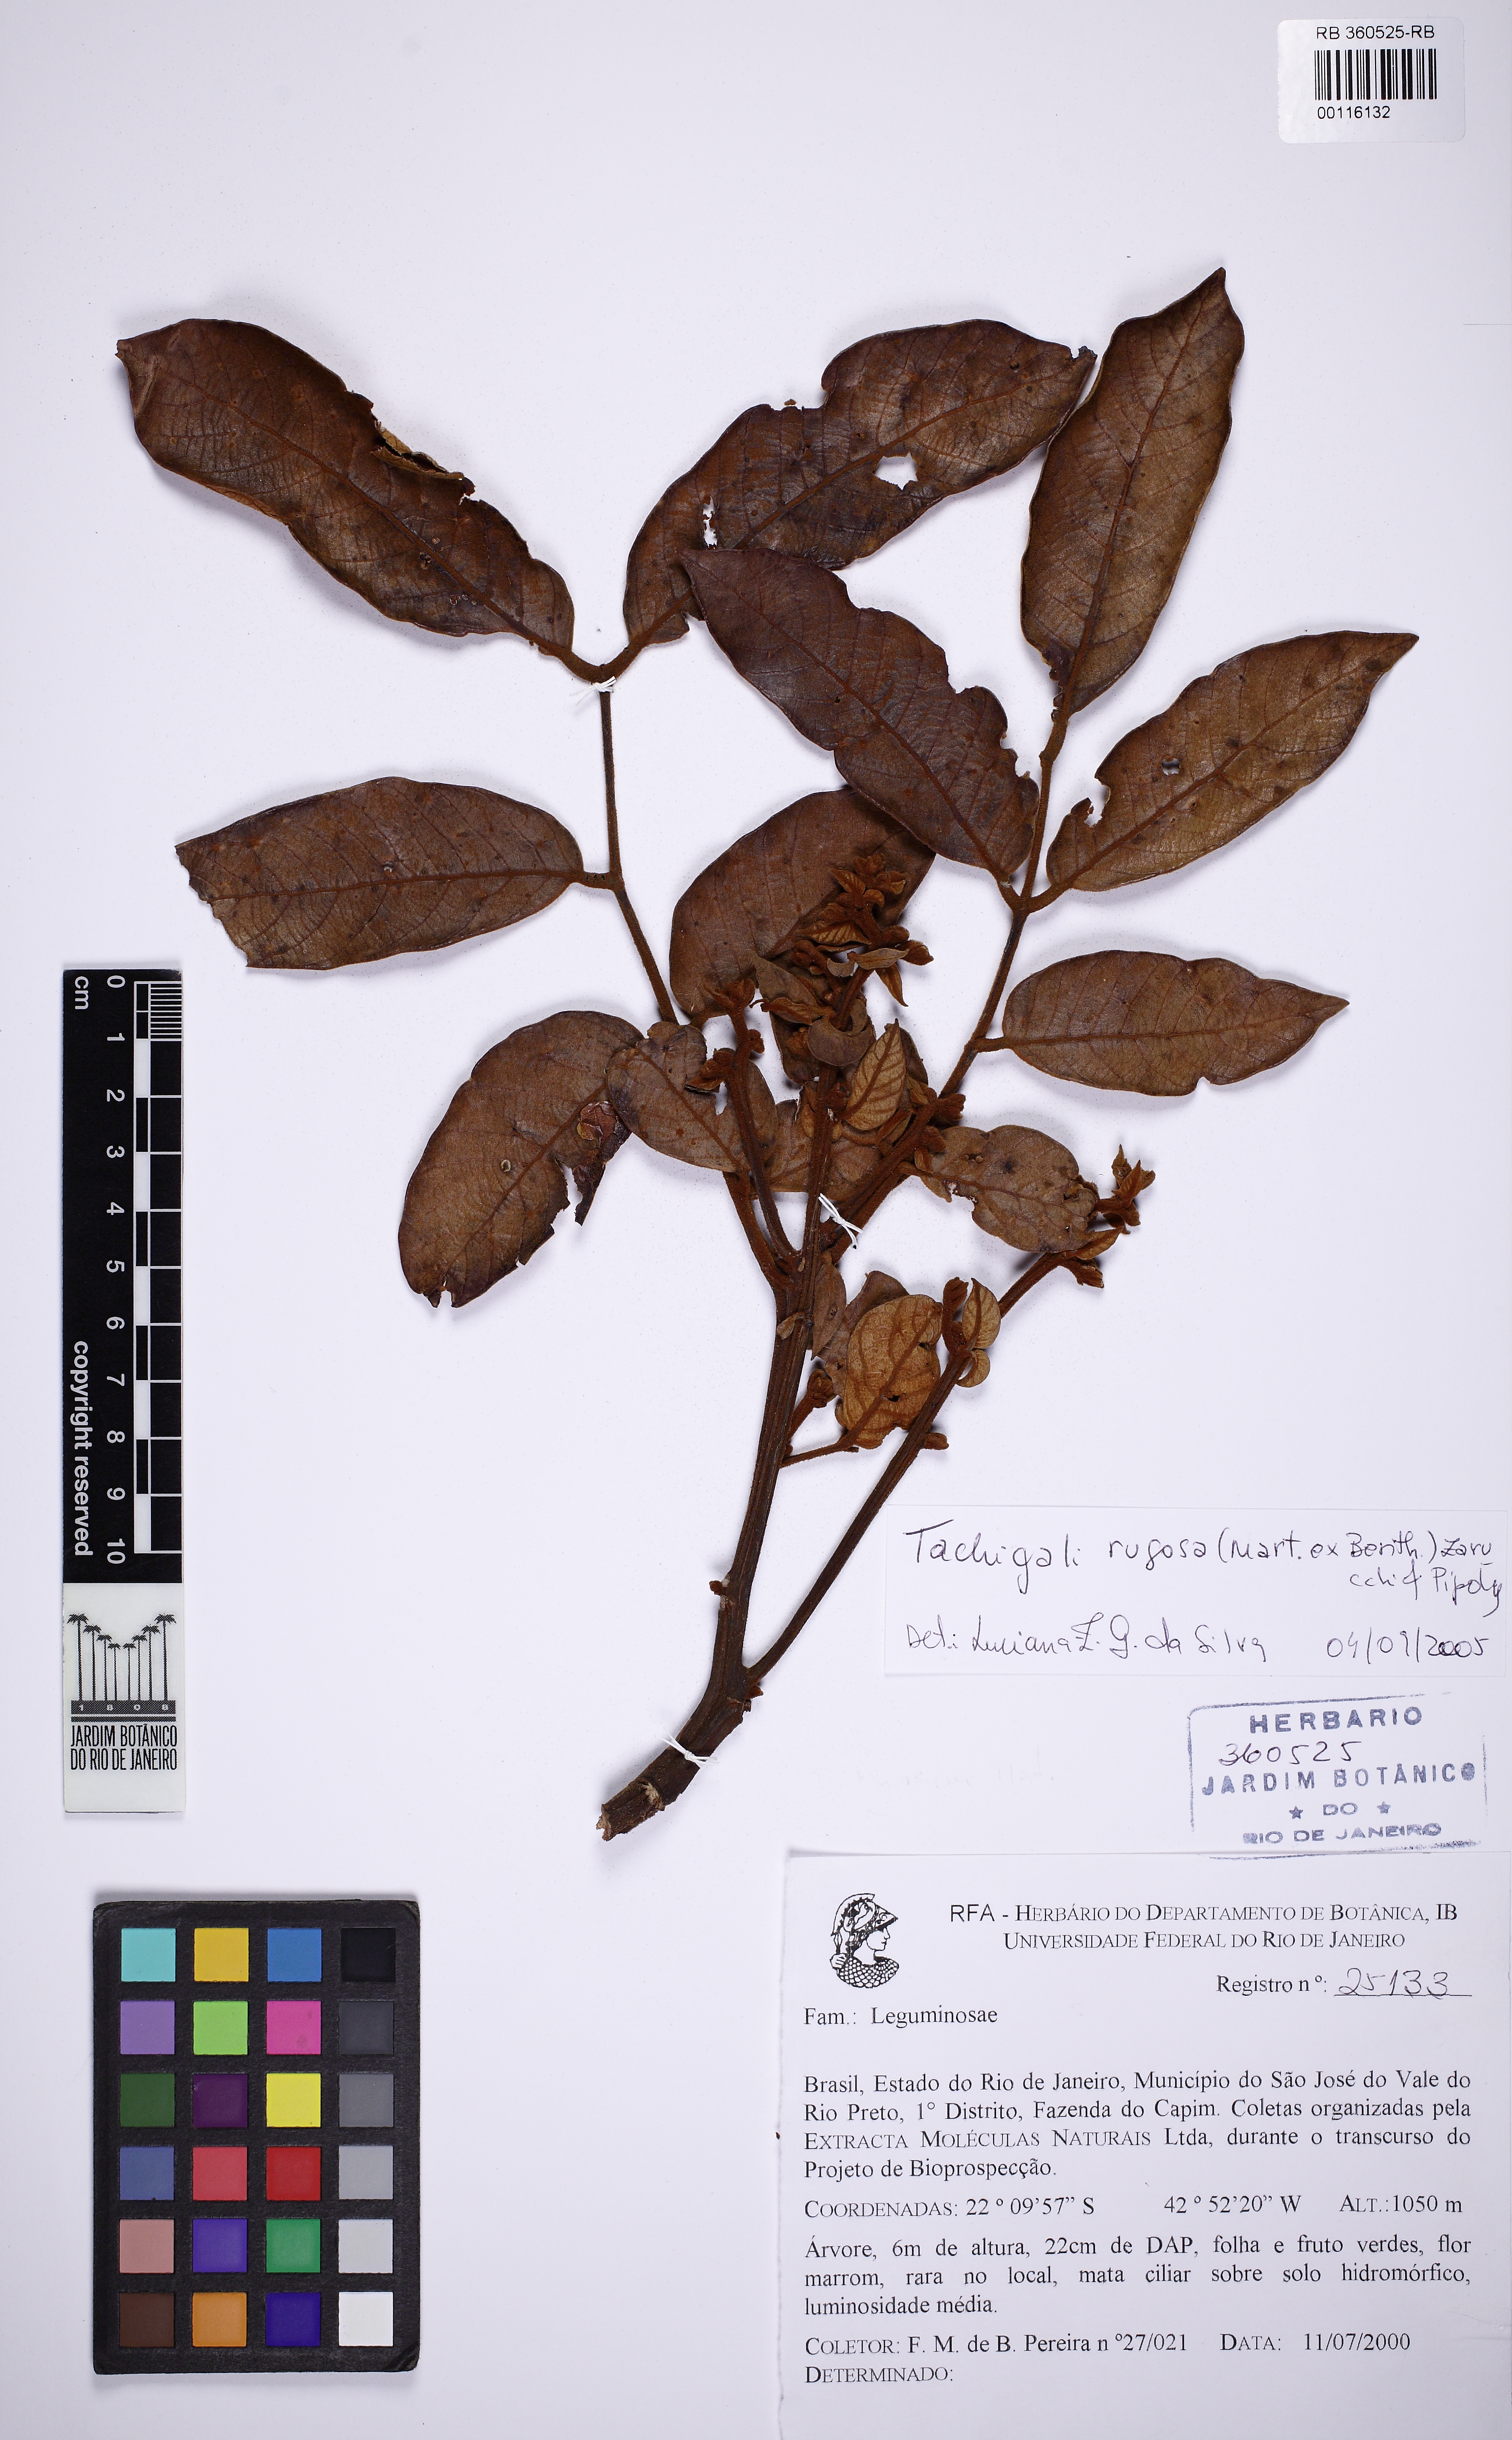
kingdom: Plantae
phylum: Tracheophyta
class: Magnoliopsida
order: Fabales
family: Fabaceae
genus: Tachigali
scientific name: Tachigali rugosa
